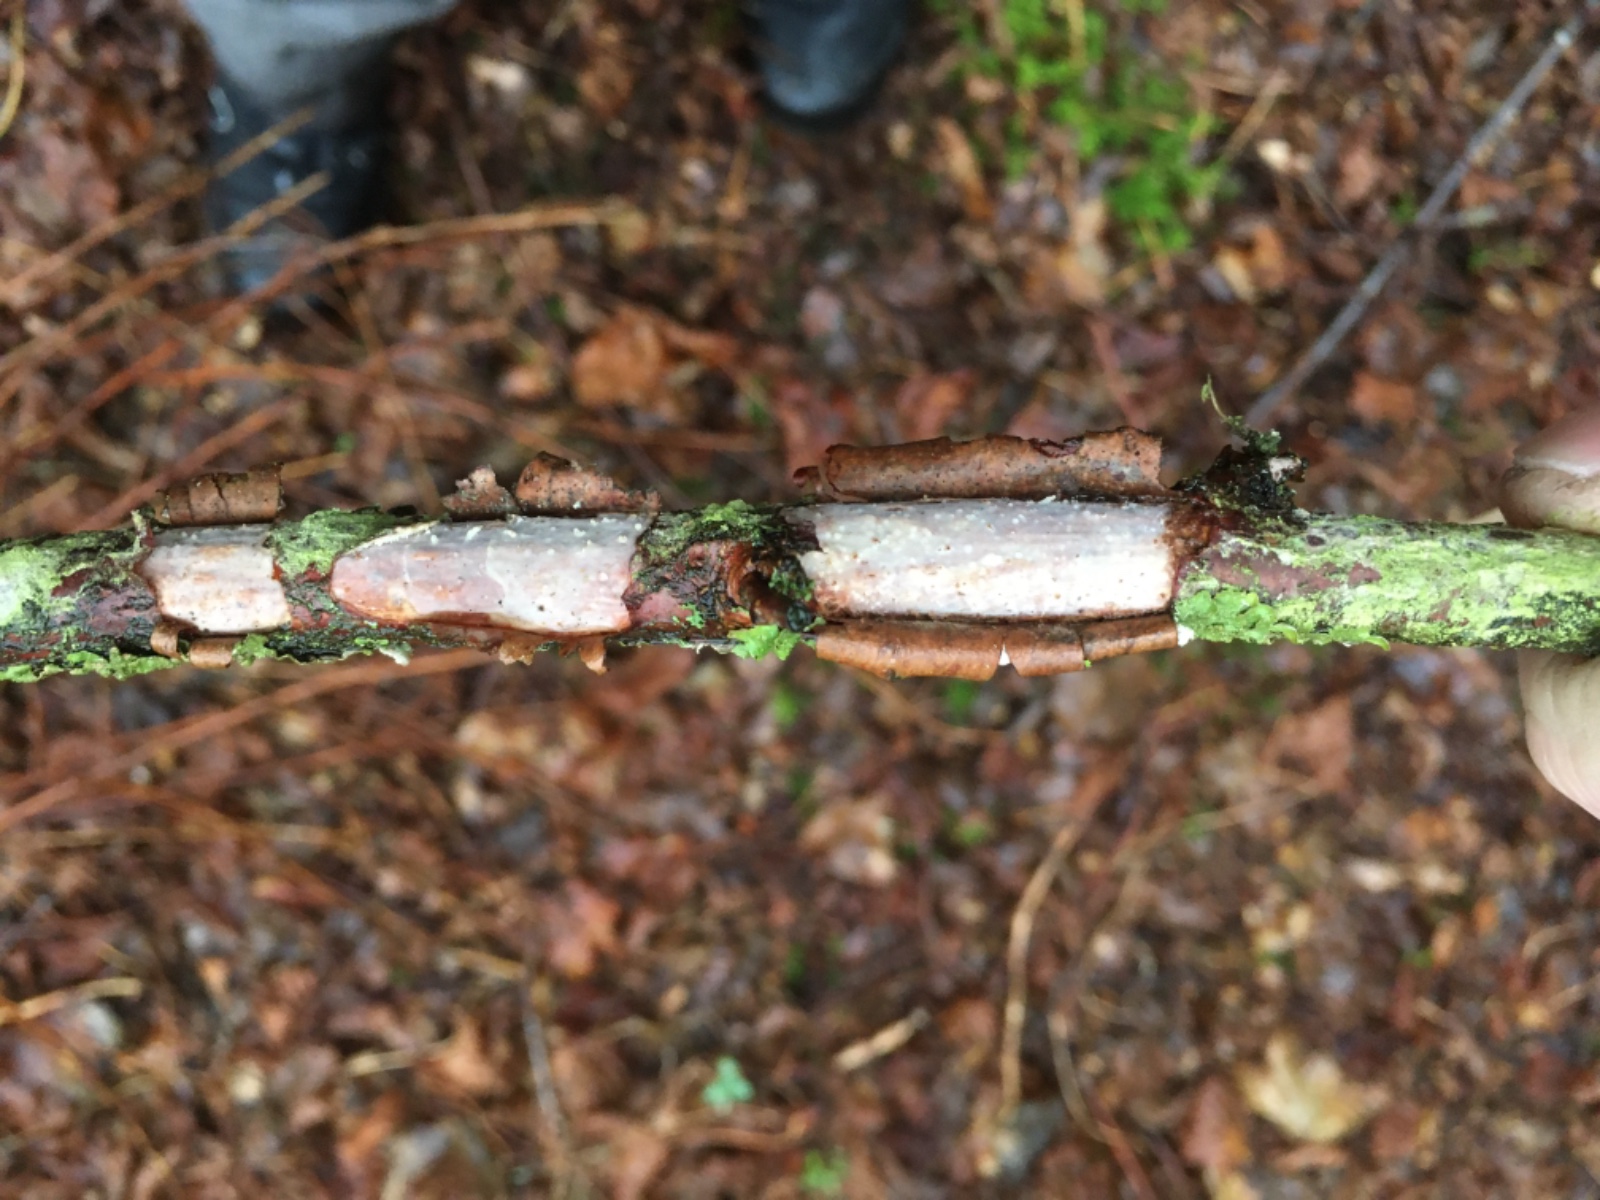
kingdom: Fungi
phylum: Basidiomycota
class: Agaricomycetes
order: Corticiales
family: Vuilleminiaceae
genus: Vuilleminia
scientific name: Vuilleminia coryli
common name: hassel-barksprænger
